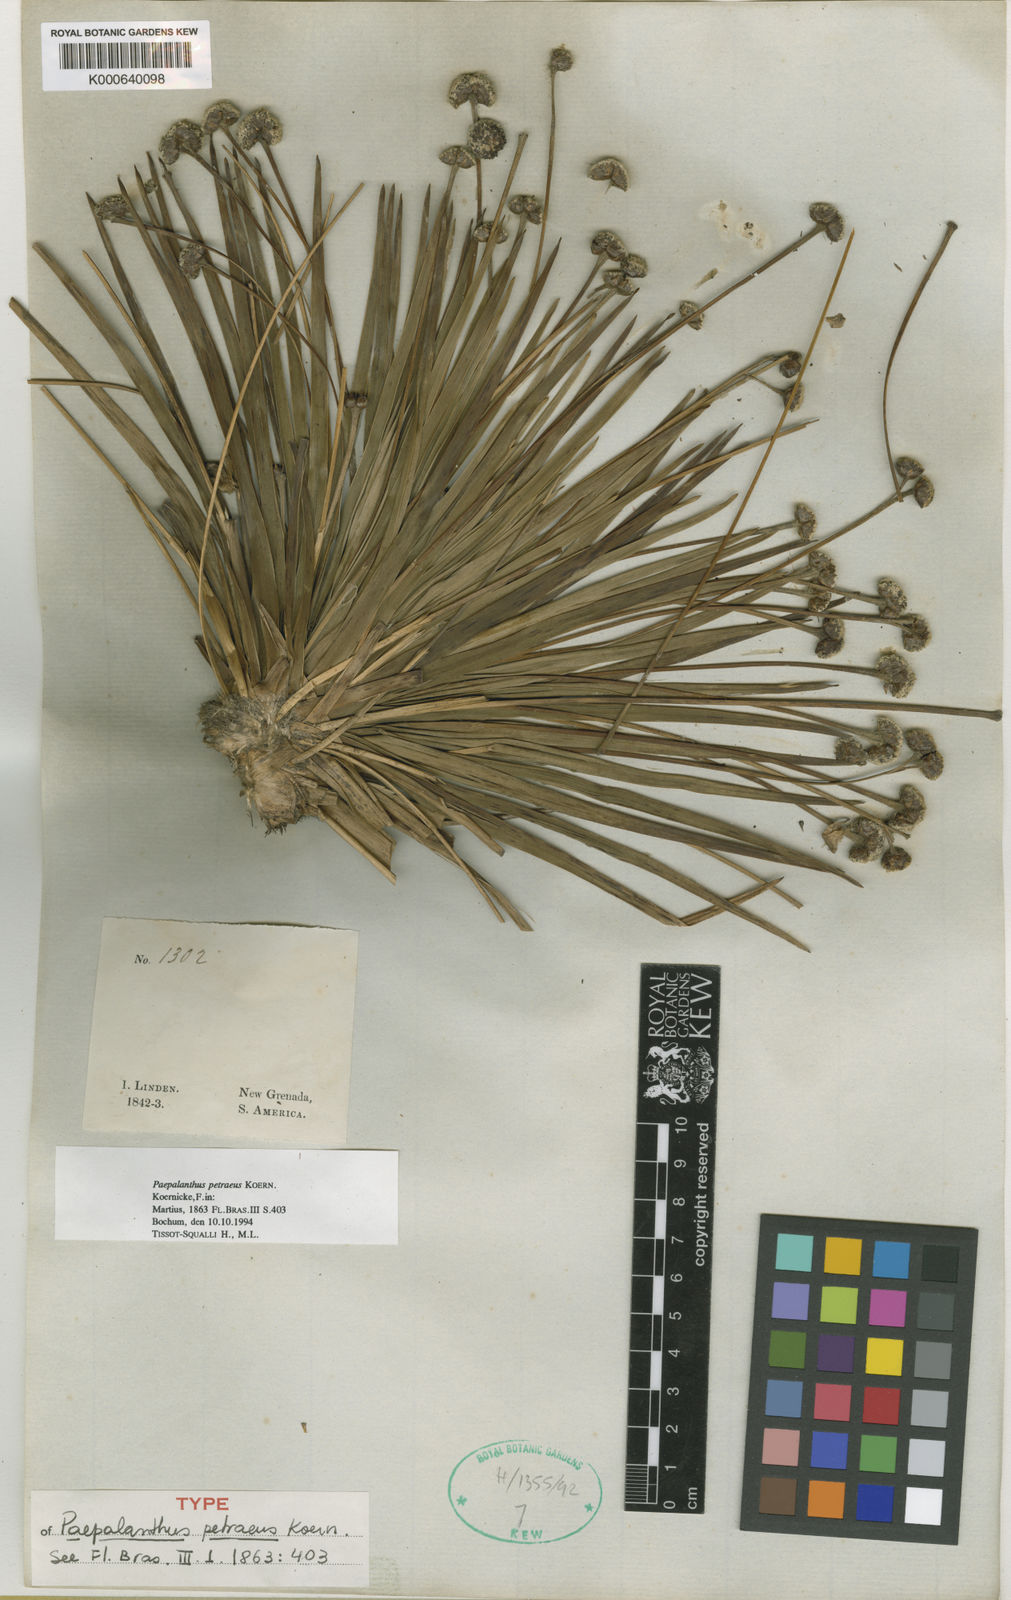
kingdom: Plantae
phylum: Tracheophyta
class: Liliopsida
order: Poales
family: Eriocaulaceae
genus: Paepalanthus
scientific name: Paepalanthus
